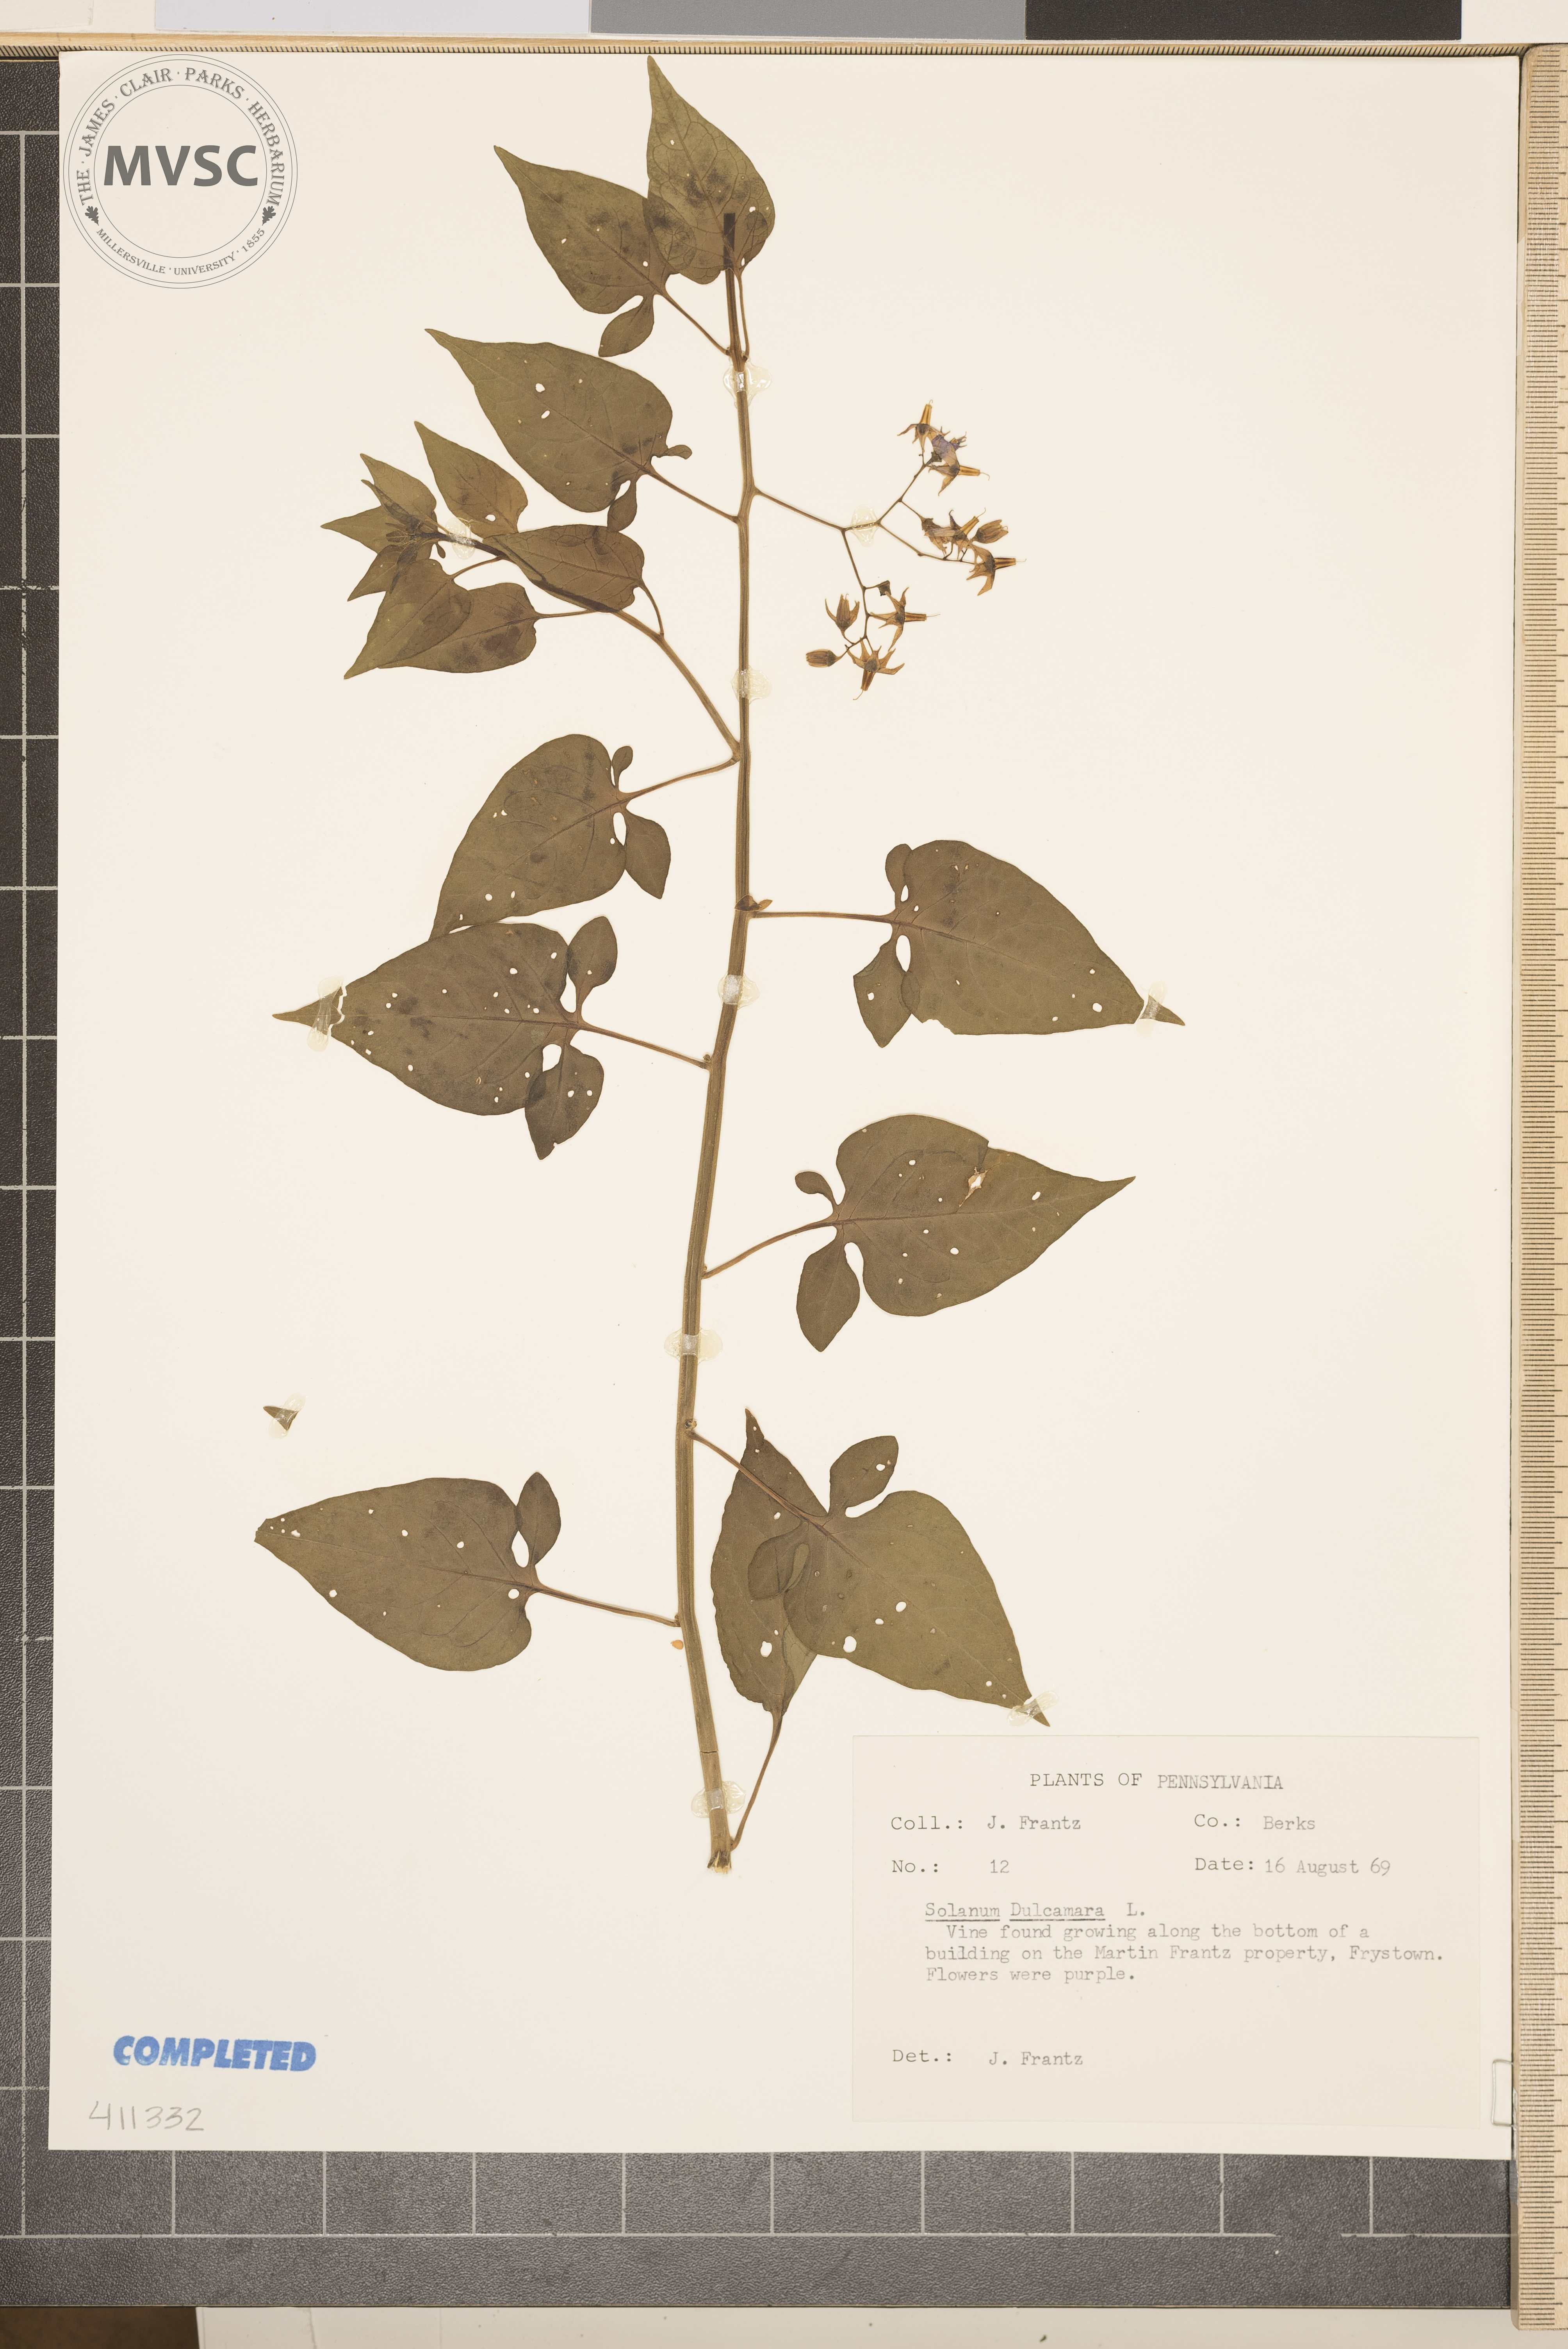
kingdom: Plantae
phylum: Tracheophyta
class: Magnoliopsida
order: Solanales
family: Solanaceae
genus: Solanum
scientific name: Solanum
